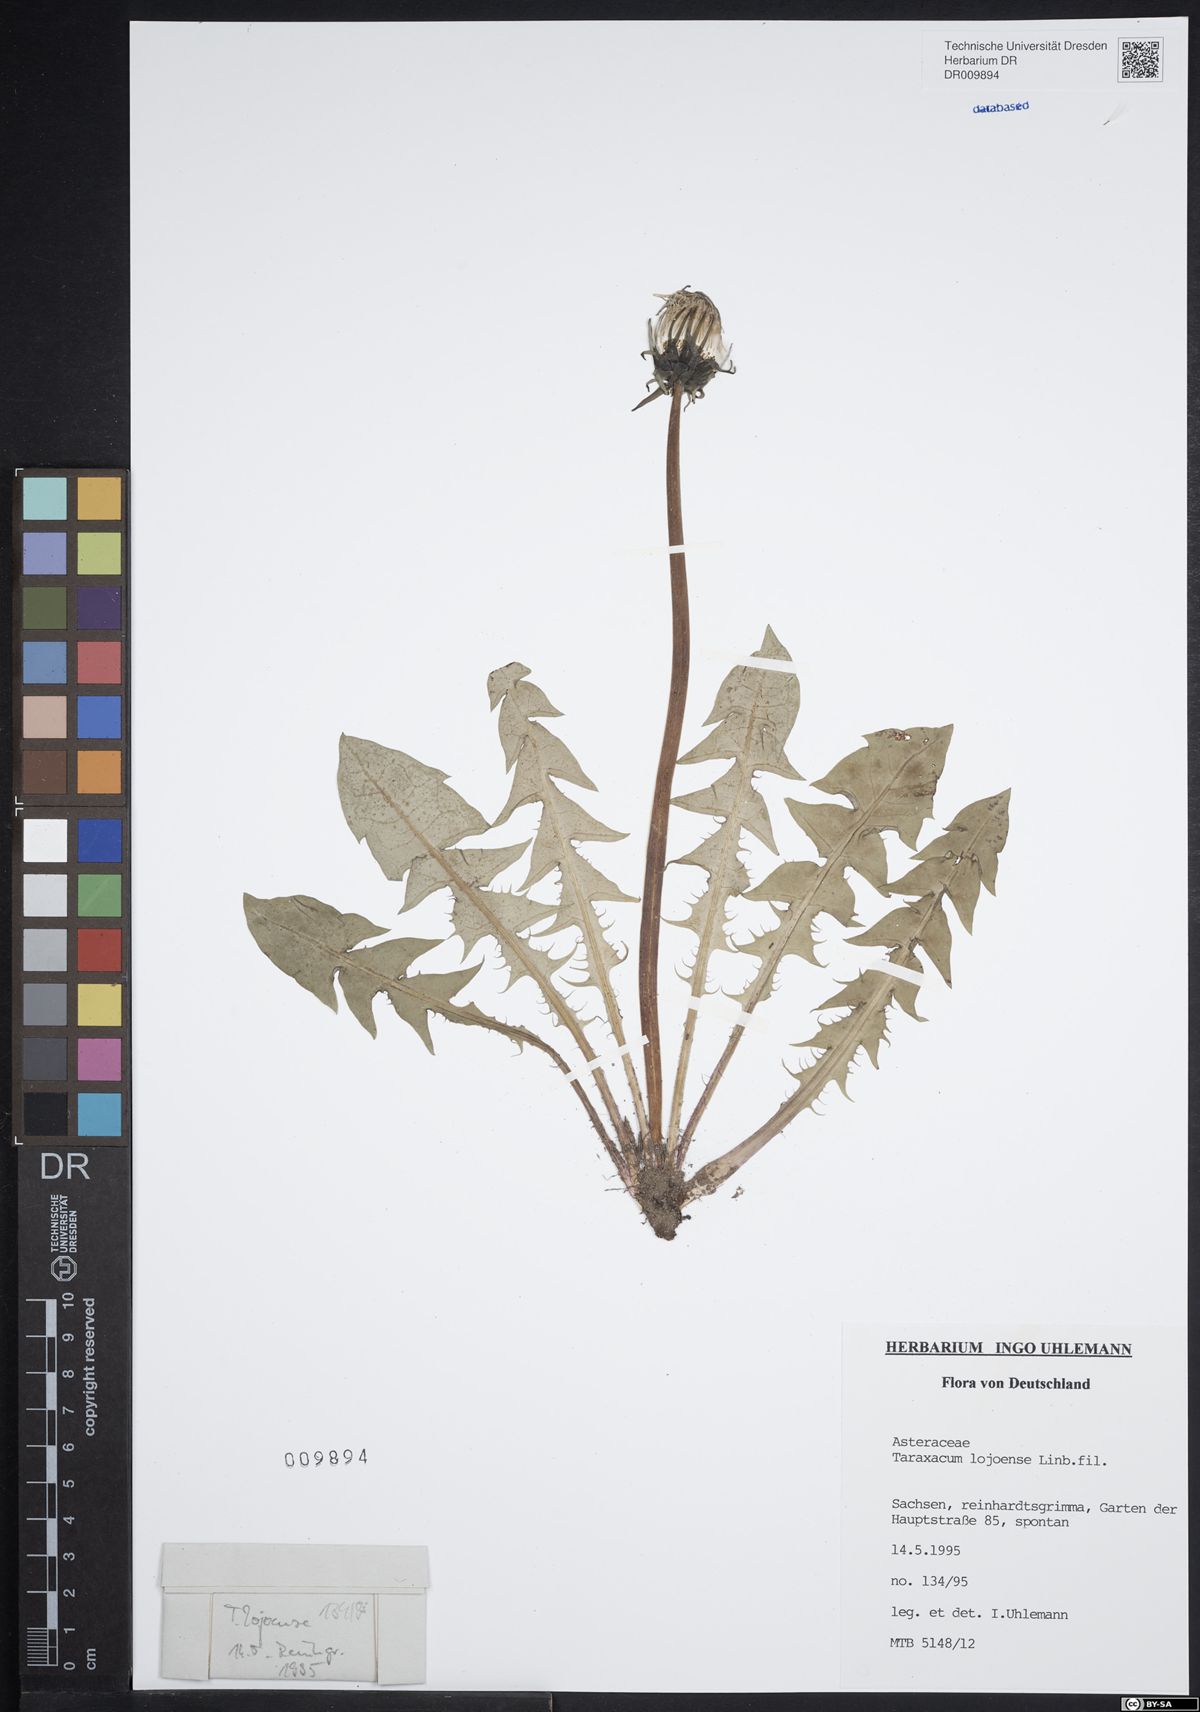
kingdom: Plantae
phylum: Tracheophyta
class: Magnoliopsida
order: Asterales
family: Asteraceae
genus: Taraxacum
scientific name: Taraxacum debrayi
